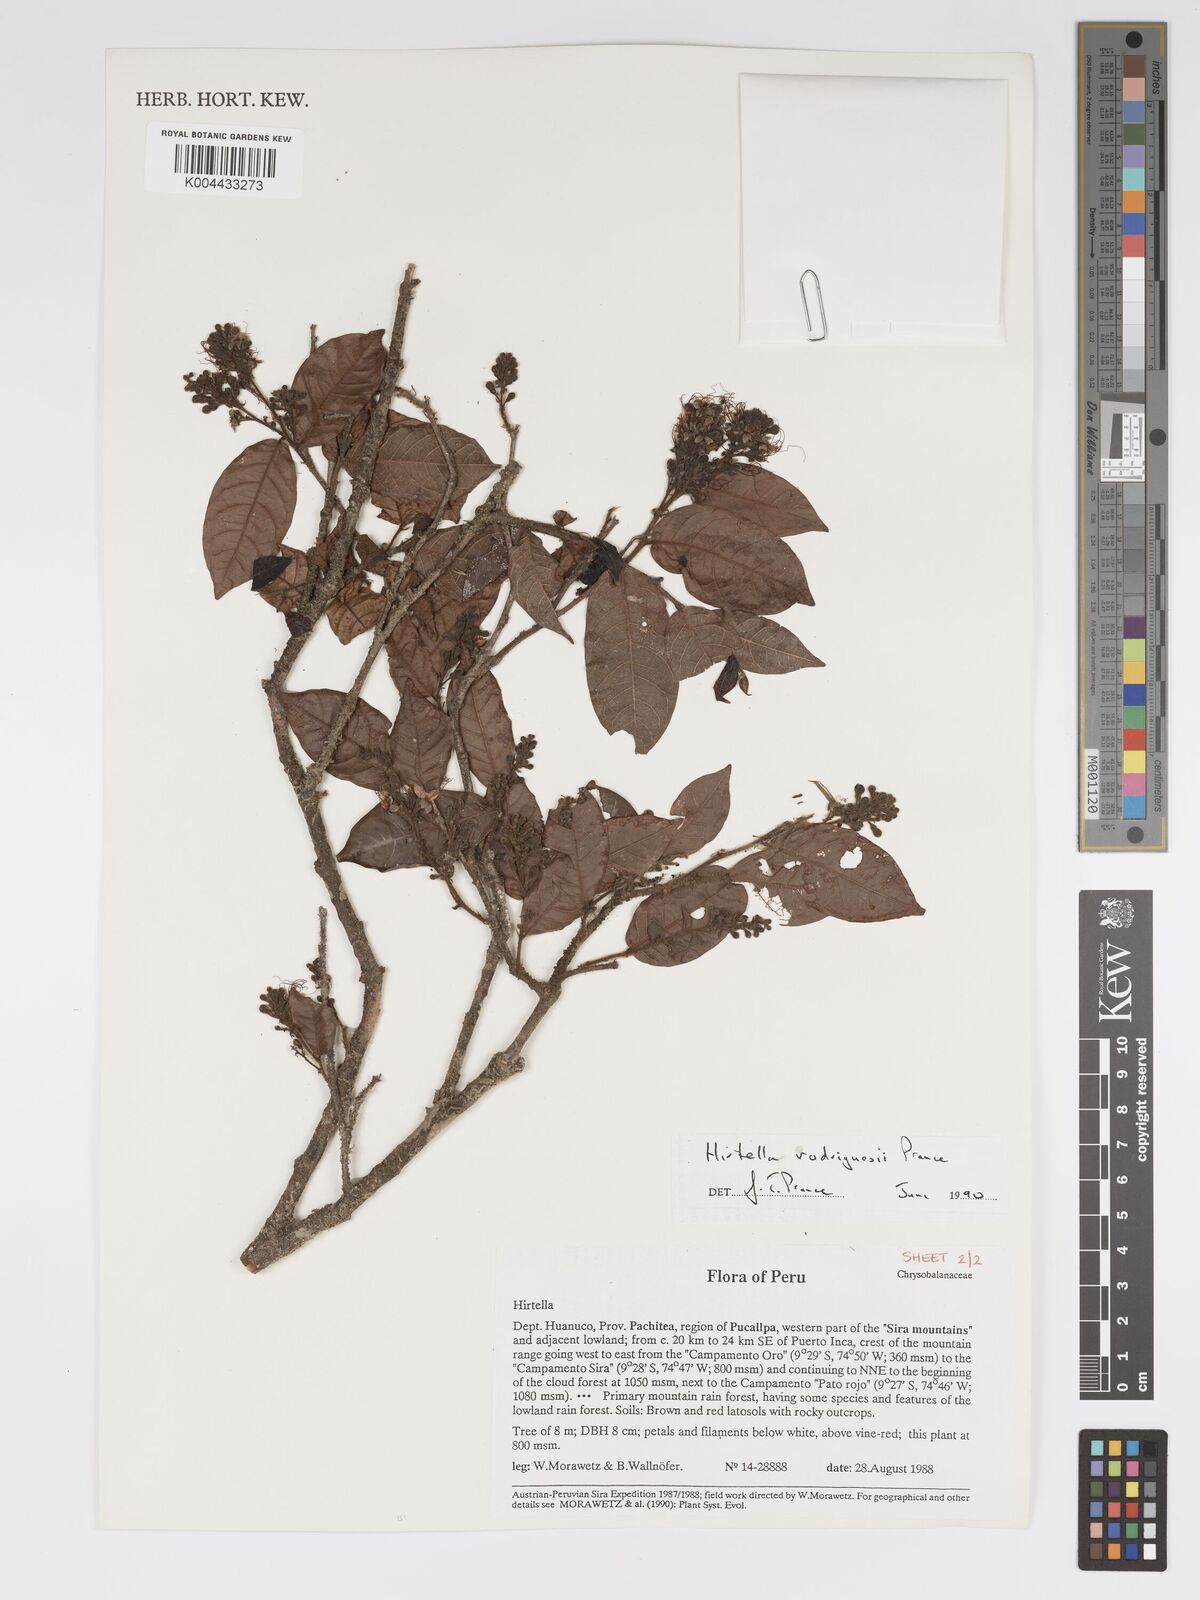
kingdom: Plantae
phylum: Tracheophyta
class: Magnoliopsida
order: Malpighiales
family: Chrysobalanaceae
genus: Hirtella
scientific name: Hirtella rodriguesii
